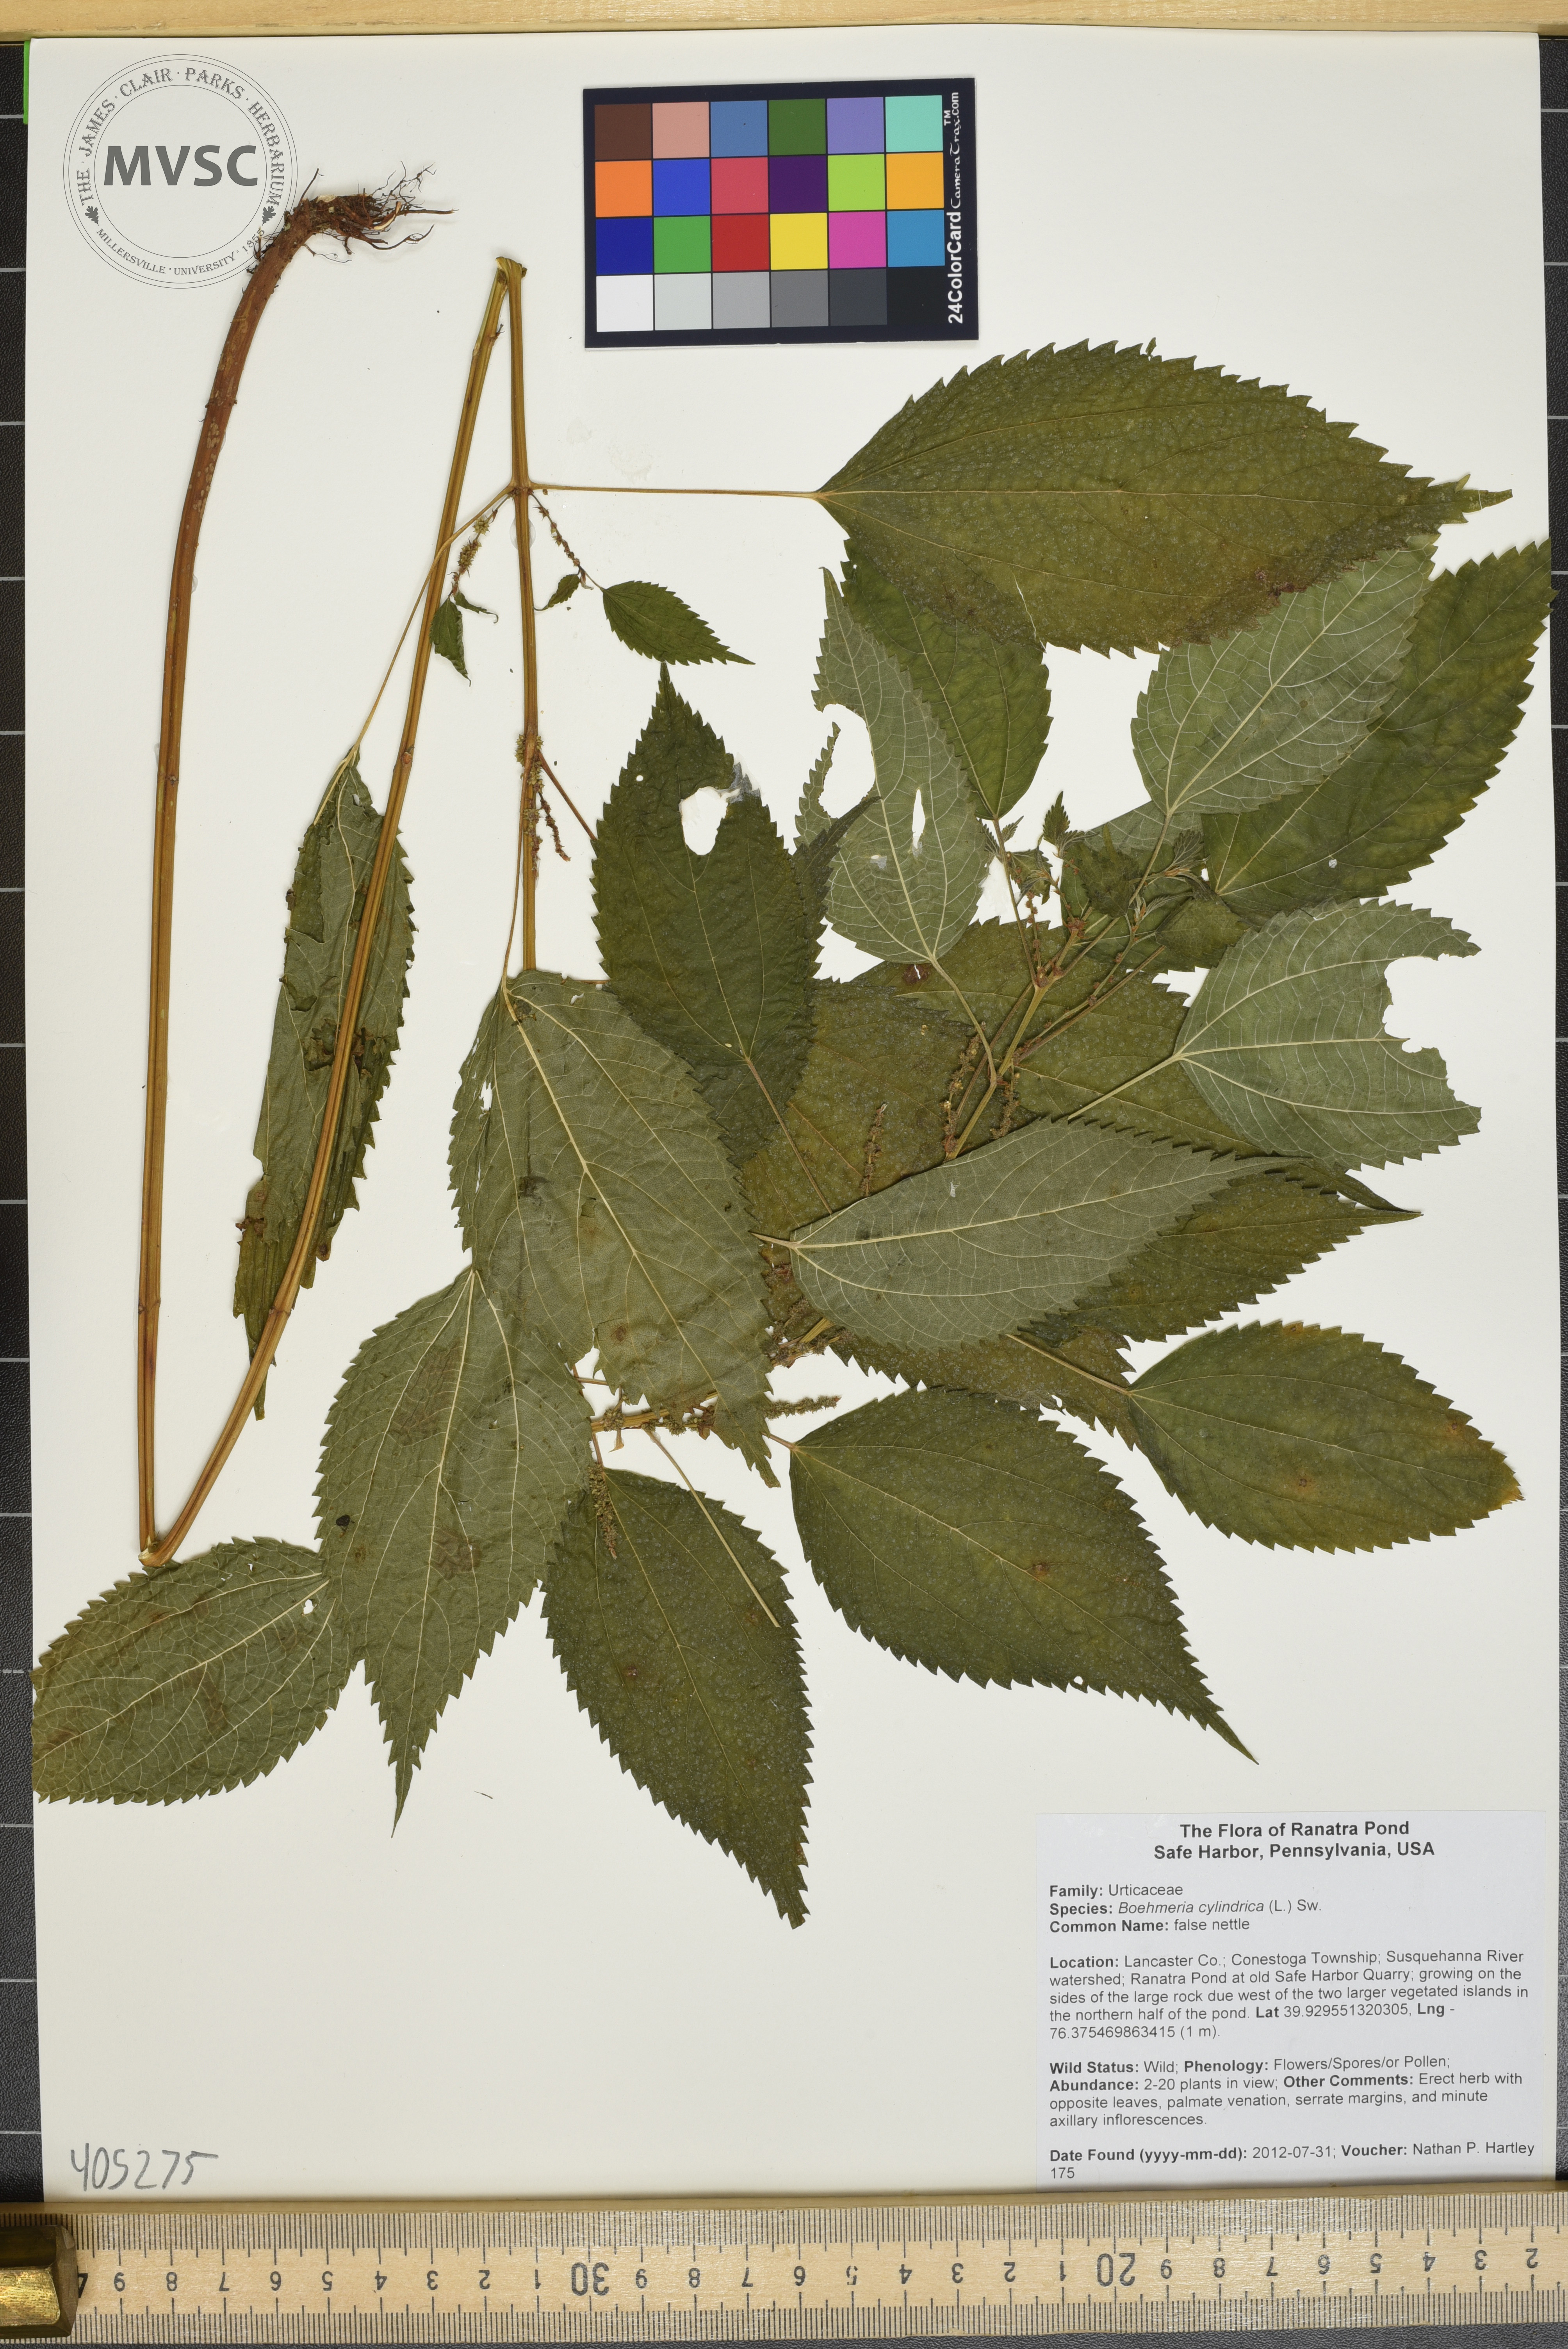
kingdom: Plantae
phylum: Tracheophyta
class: Magnoliopsida
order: Rosales
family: Urticaceae
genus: Boehmeria
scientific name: Boehmeria cylindrica
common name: false nettle
